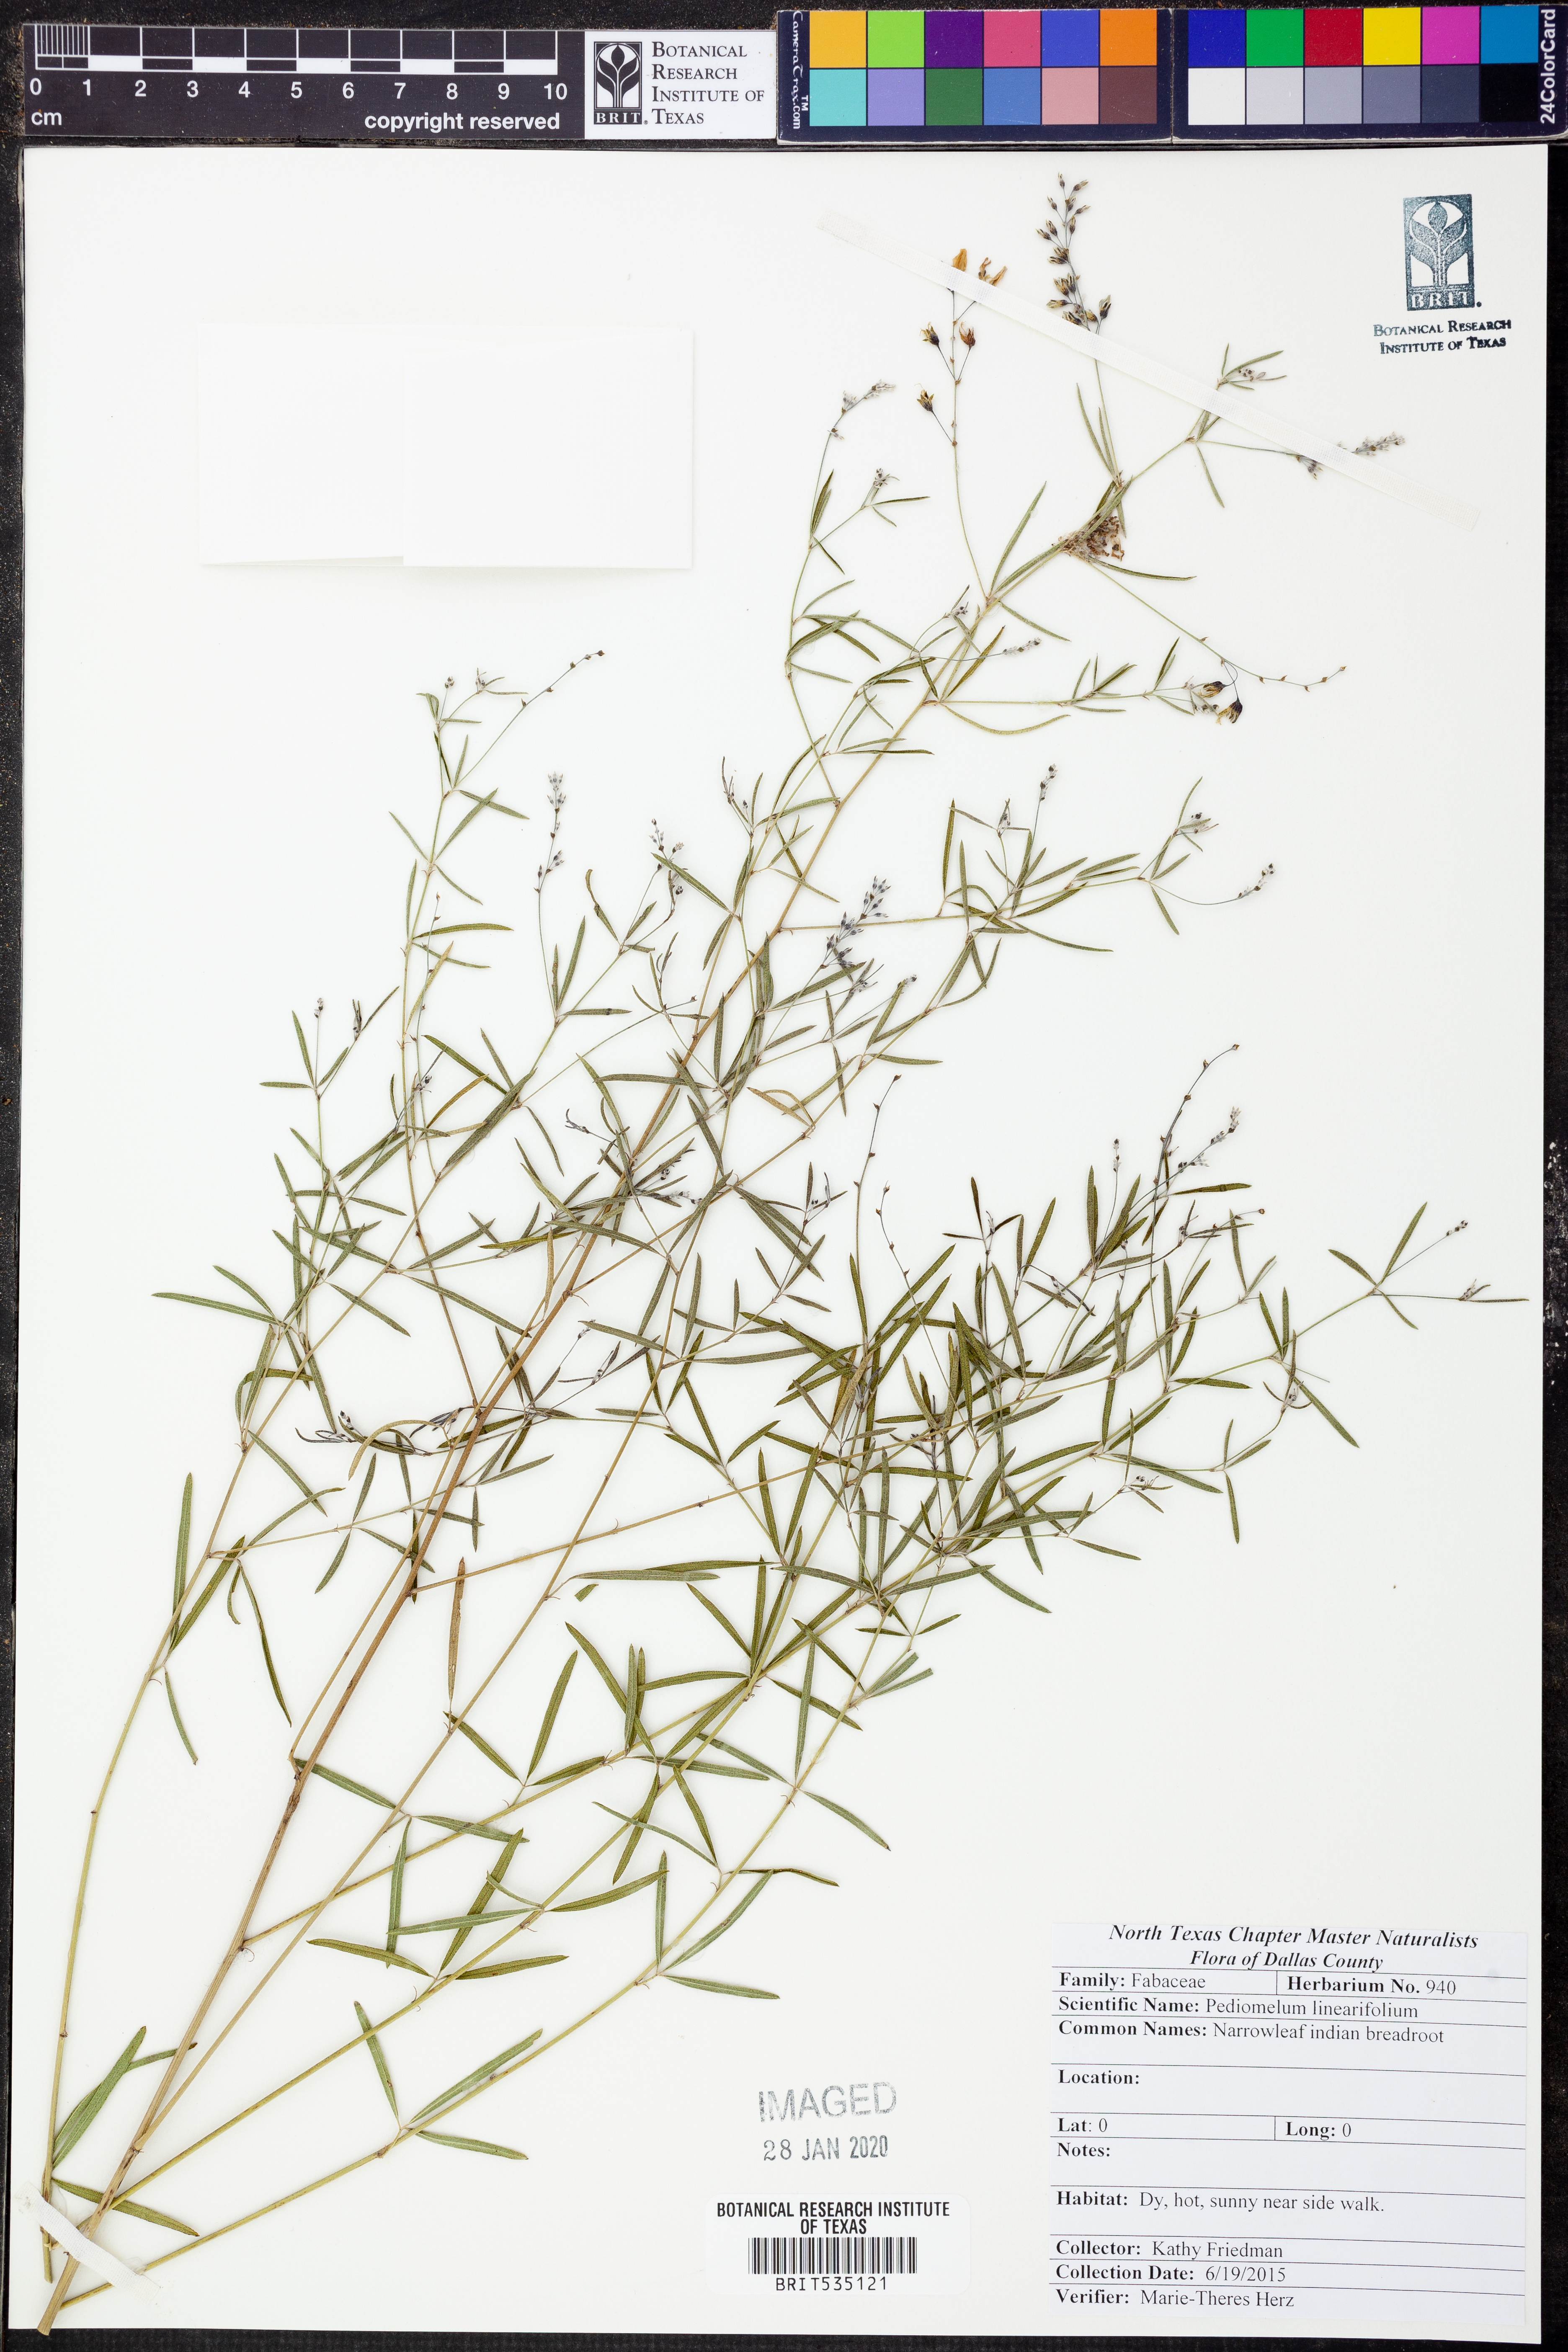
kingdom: Plantae
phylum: Tracheophyta
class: Magnoliopsida
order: Fabales
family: Fabaceae
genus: Pediomelum
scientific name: Pediomelum linearifolium
